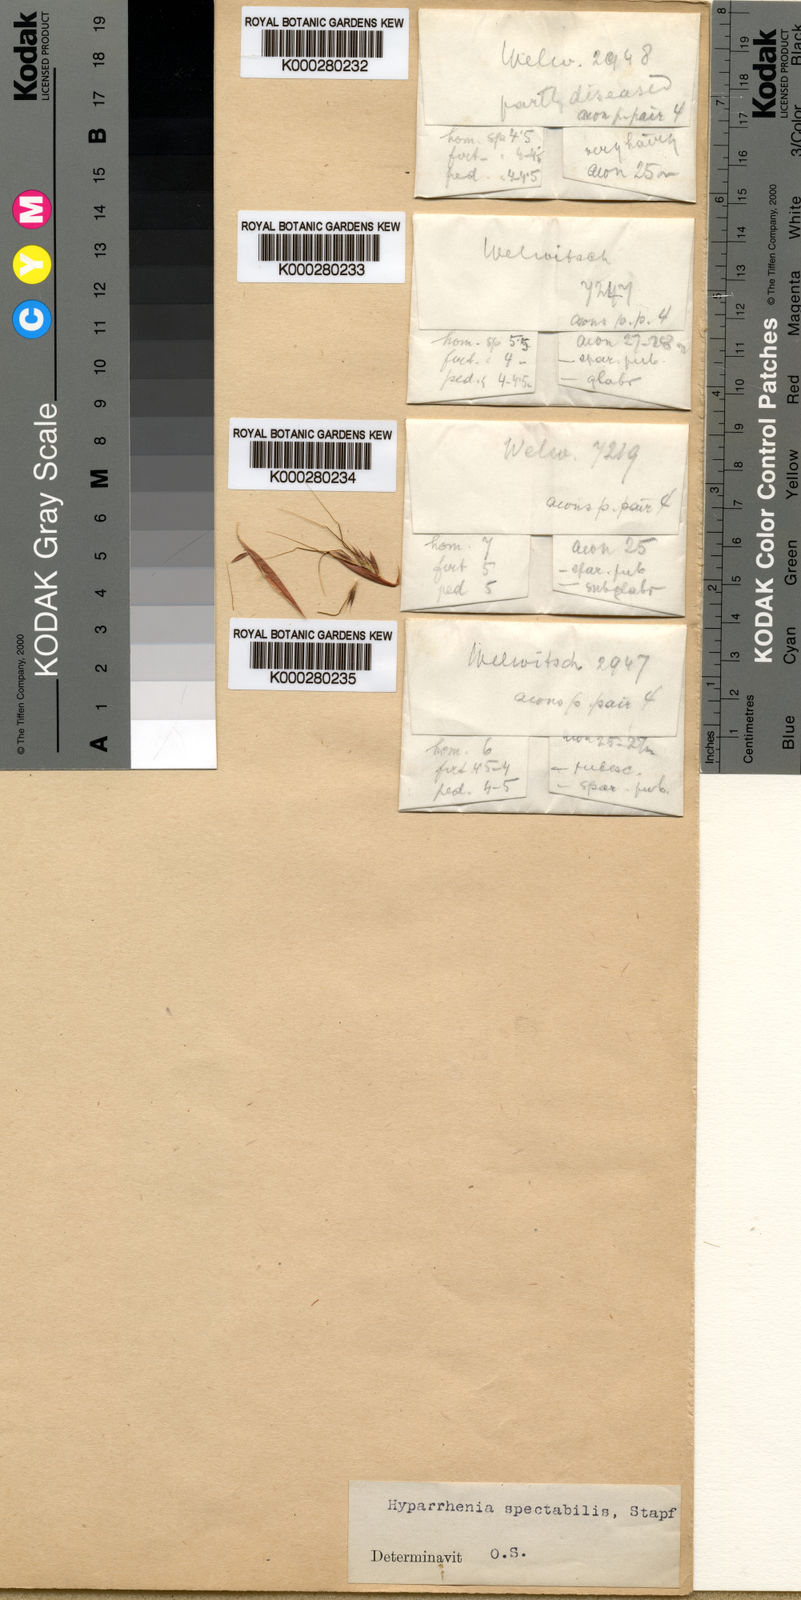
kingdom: Plantae
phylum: Tracheophyta
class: Liliopsida
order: Poales
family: Poaceae
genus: Hyparrhenia
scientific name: Hyparrhenia variabilis
